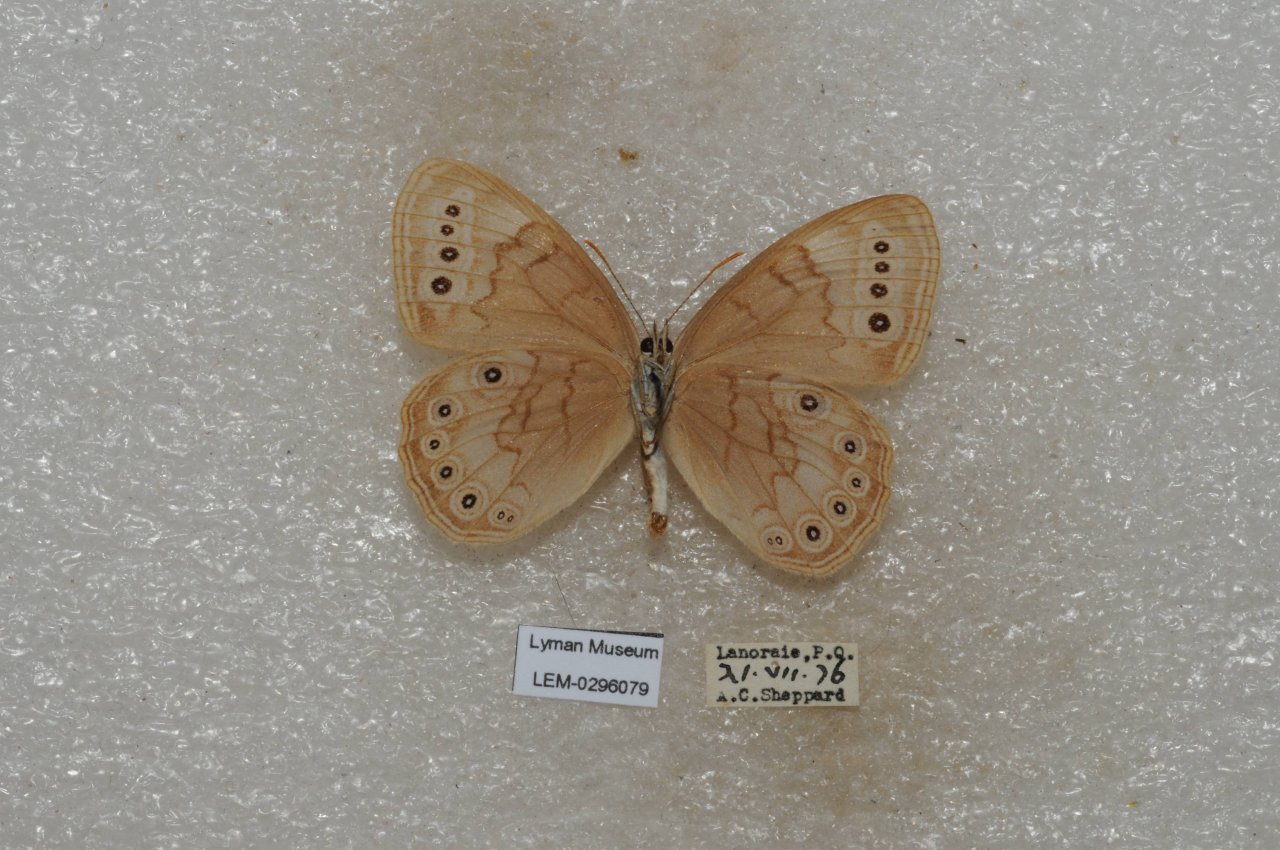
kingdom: Animalia
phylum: Arthropoda
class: Insecta
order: Lepidoptera
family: Nymphalidae
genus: Lethe
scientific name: Lethe eurydice
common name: Eyed Brown
